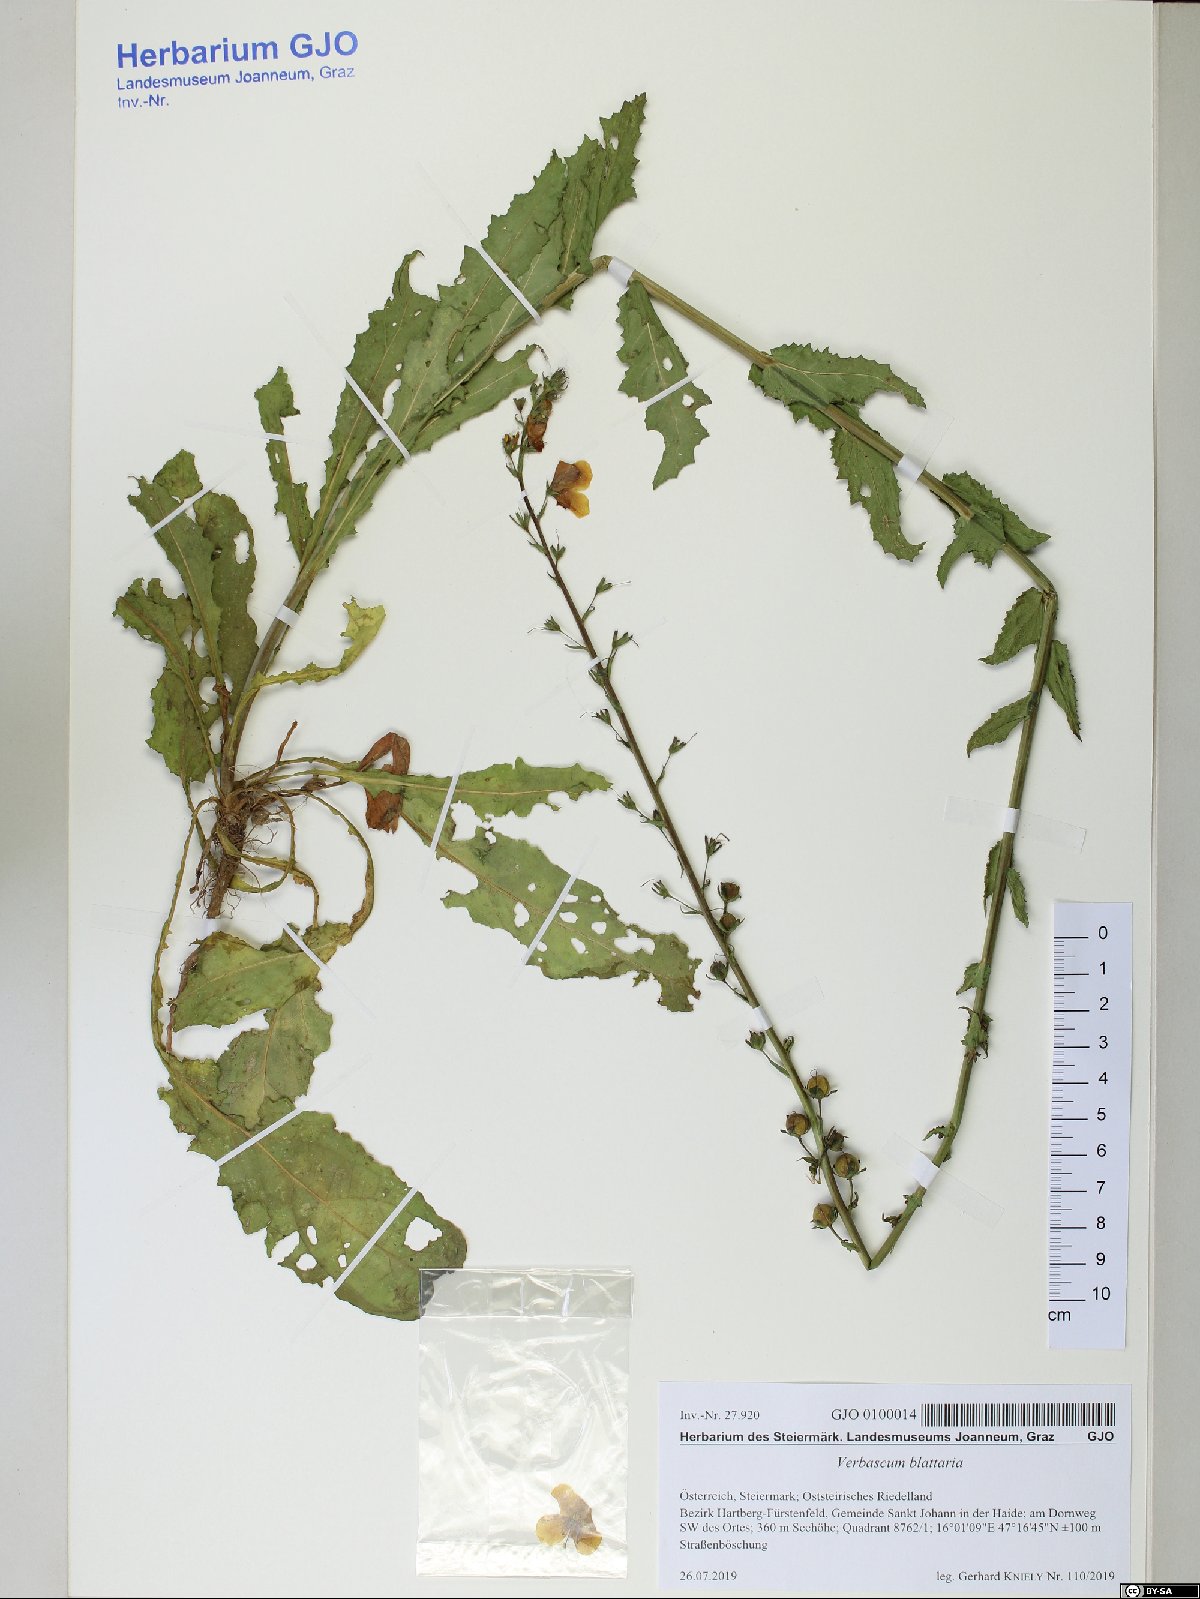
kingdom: Plantae
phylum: Tracheophyta
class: Magnoliopsida
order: Lamiales
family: Scrophulariaceae
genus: Verbascum
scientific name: Verbascum blattaria
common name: Moth mullein
